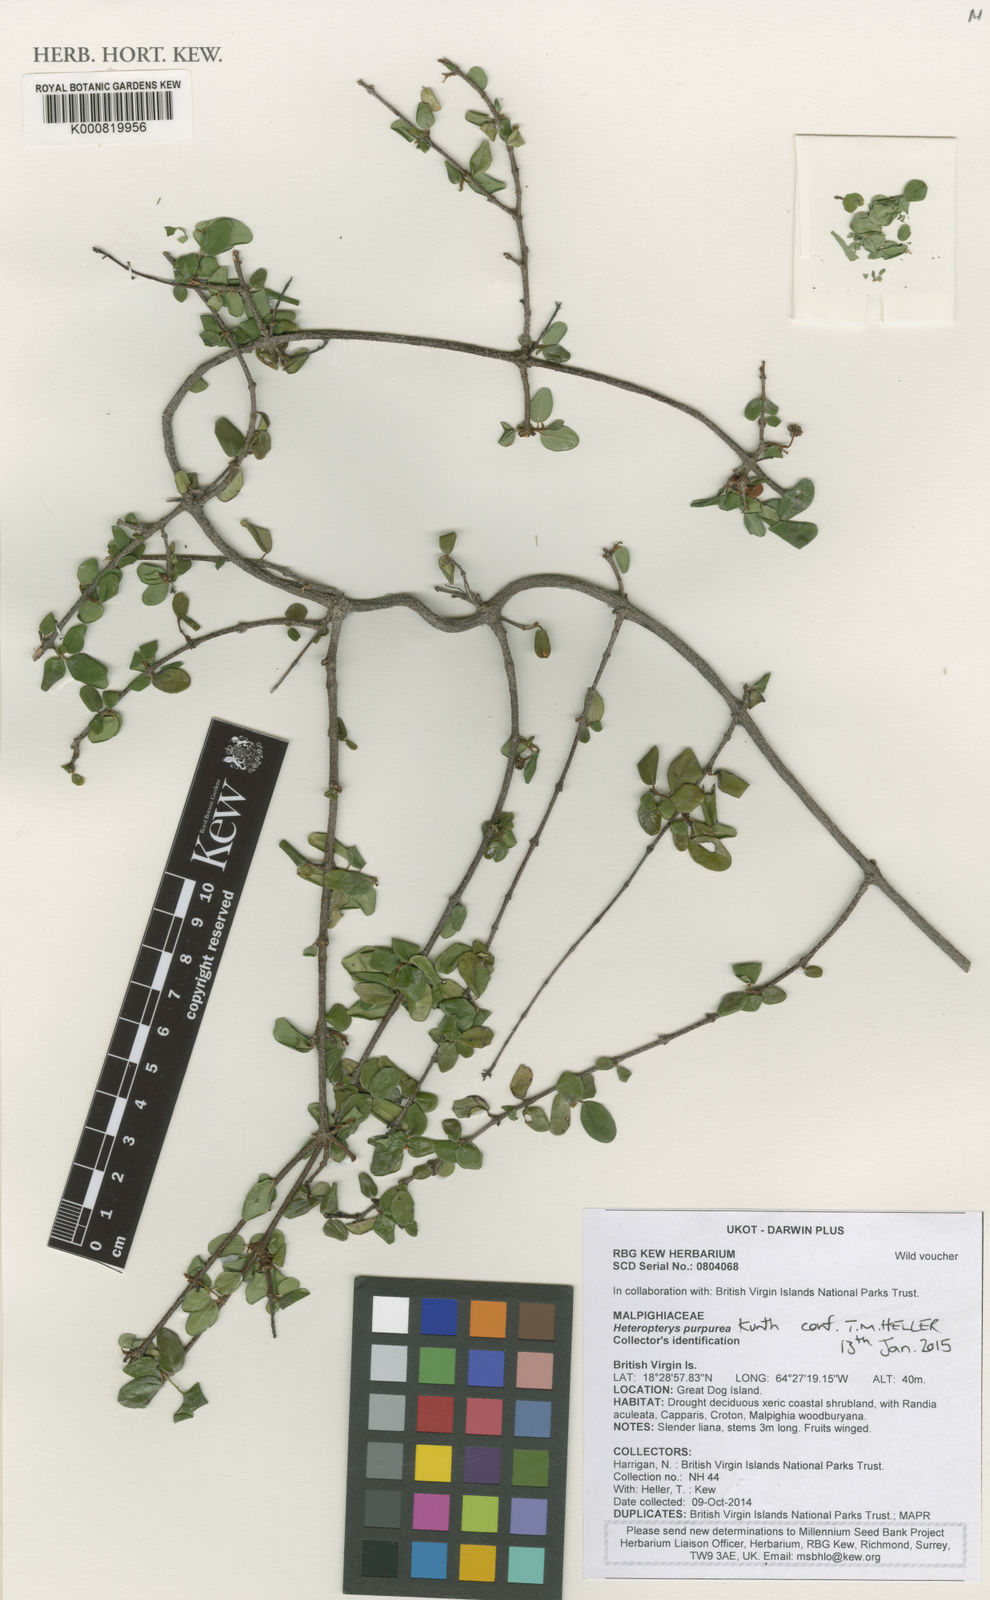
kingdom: Plantae
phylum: Tracheophyta
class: Magnoliopsida
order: Malpighiales
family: Malpighiaceae
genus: Heteropterys
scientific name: Heteropterys purpurea
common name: Bull withe
